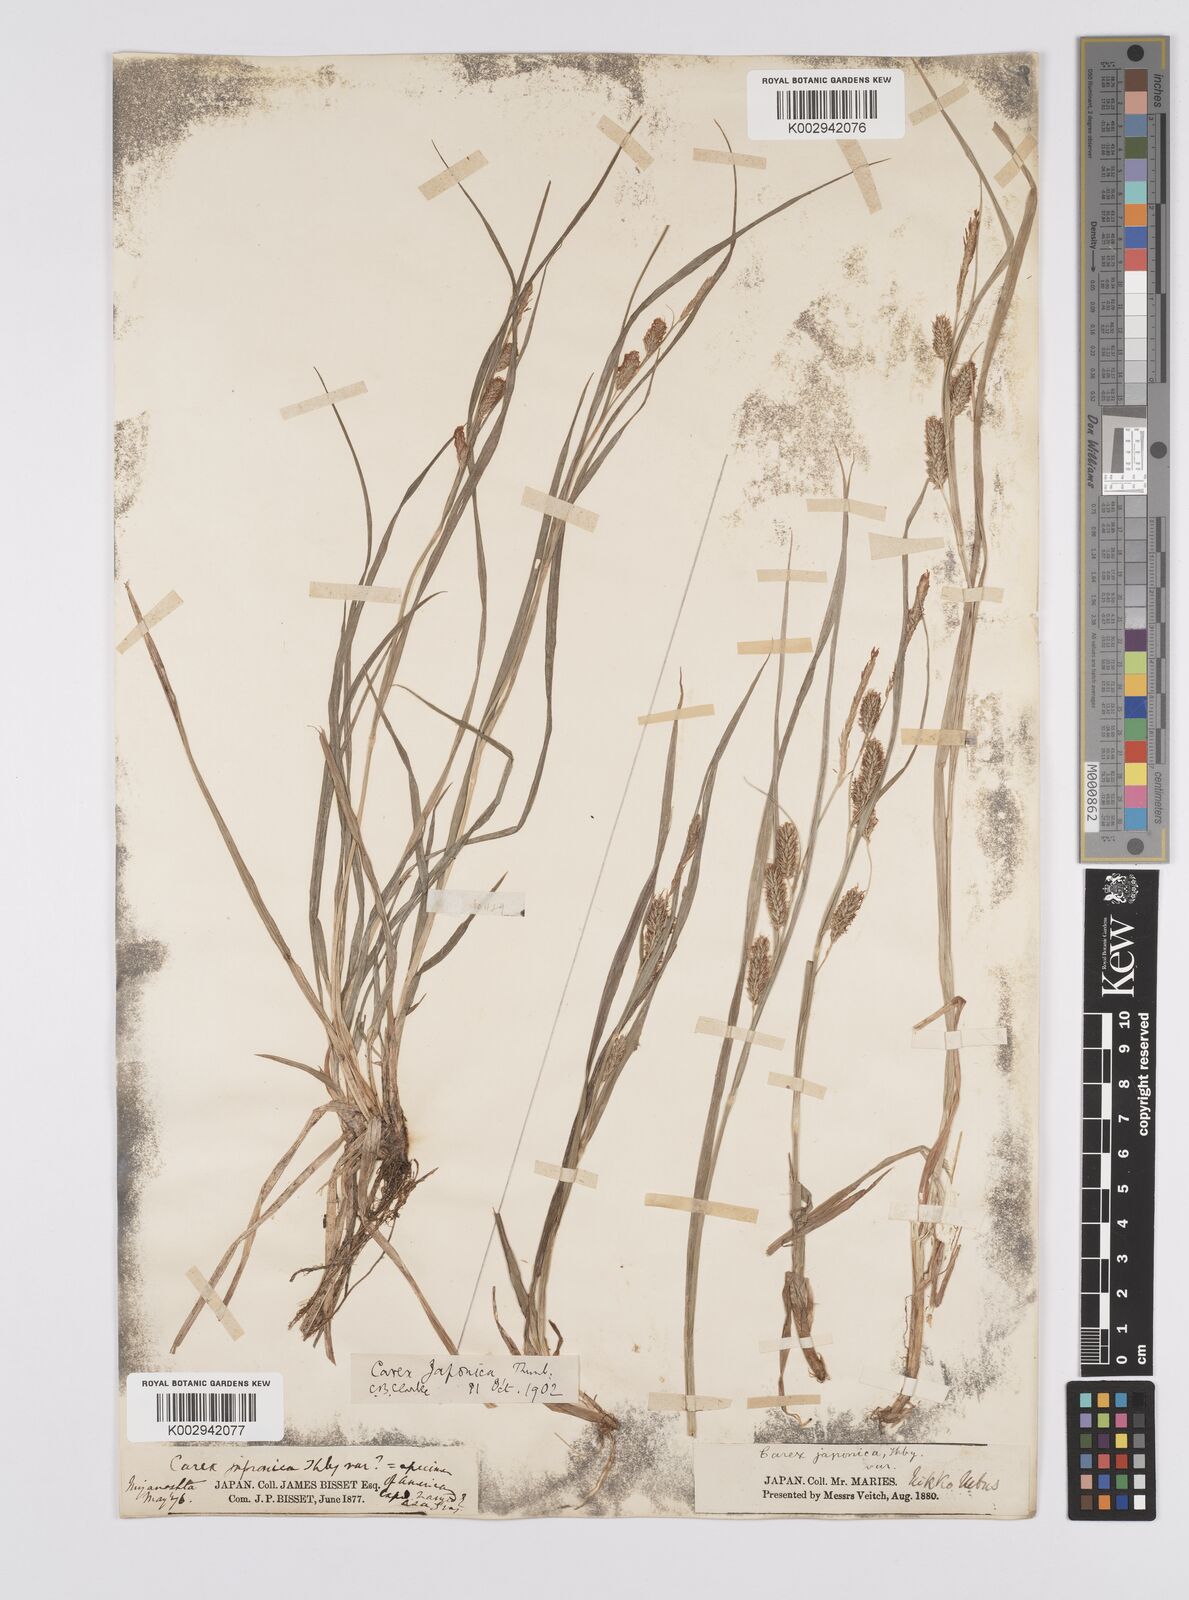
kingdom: Plantae
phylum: Tracheophyta
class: Liliopsida
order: Poales
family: Cyperaceae
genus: Carex
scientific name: Carex japonica
